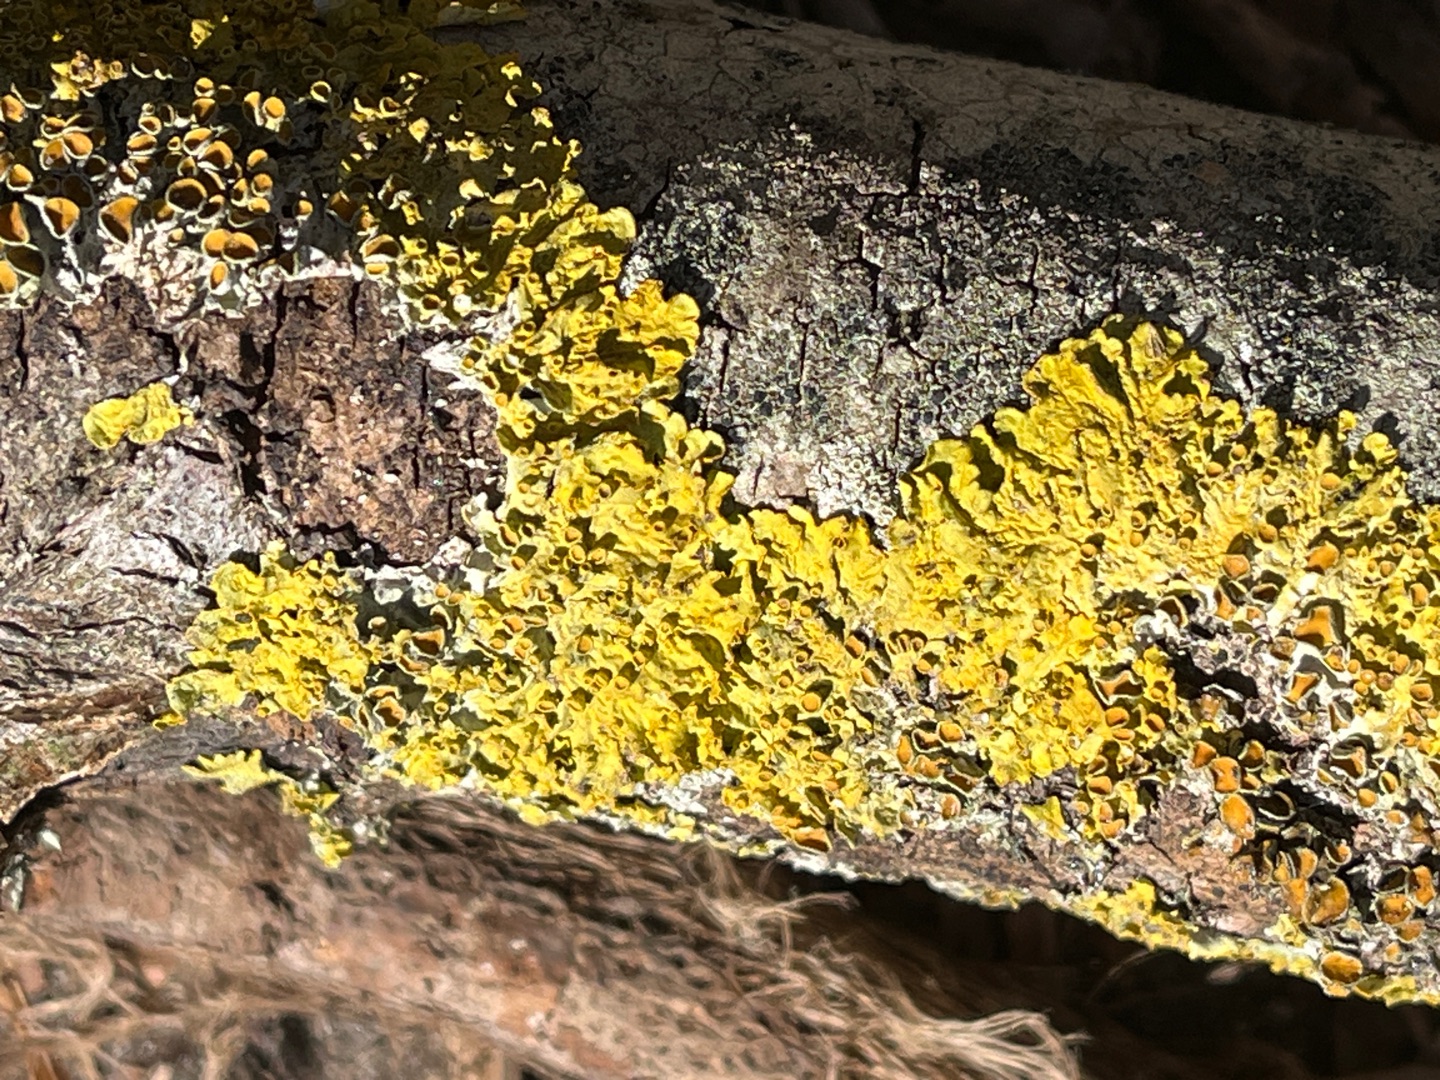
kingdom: Fungi
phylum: Ascomycota
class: Lecanoromycetes
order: Teloschistales
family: Teloschistaceae
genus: Xanthoria
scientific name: Xanthoria parietina
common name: Almindelig væggelav
